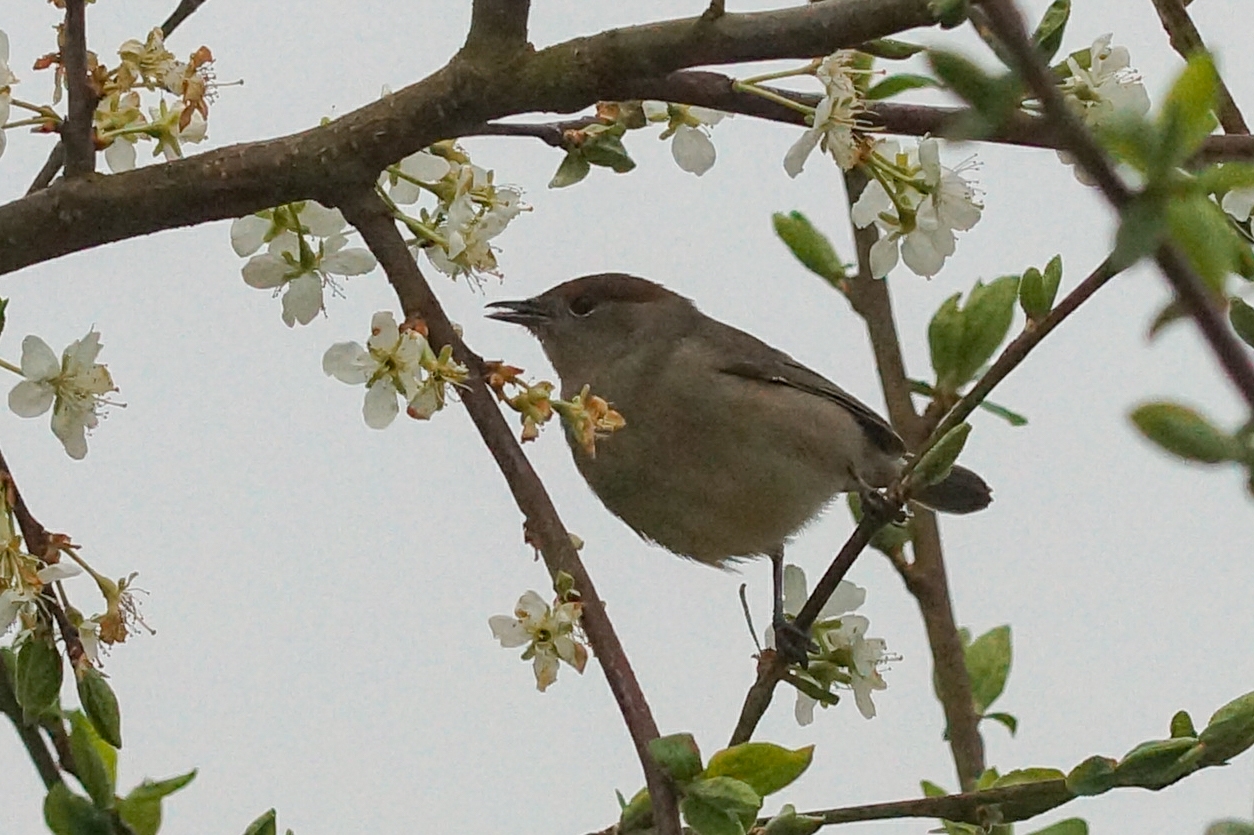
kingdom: Animalia
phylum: Chordata
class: Aves
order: Passeriformes
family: Sylviidae
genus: Sylvia
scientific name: Sylvia atricapilla
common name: Munk
